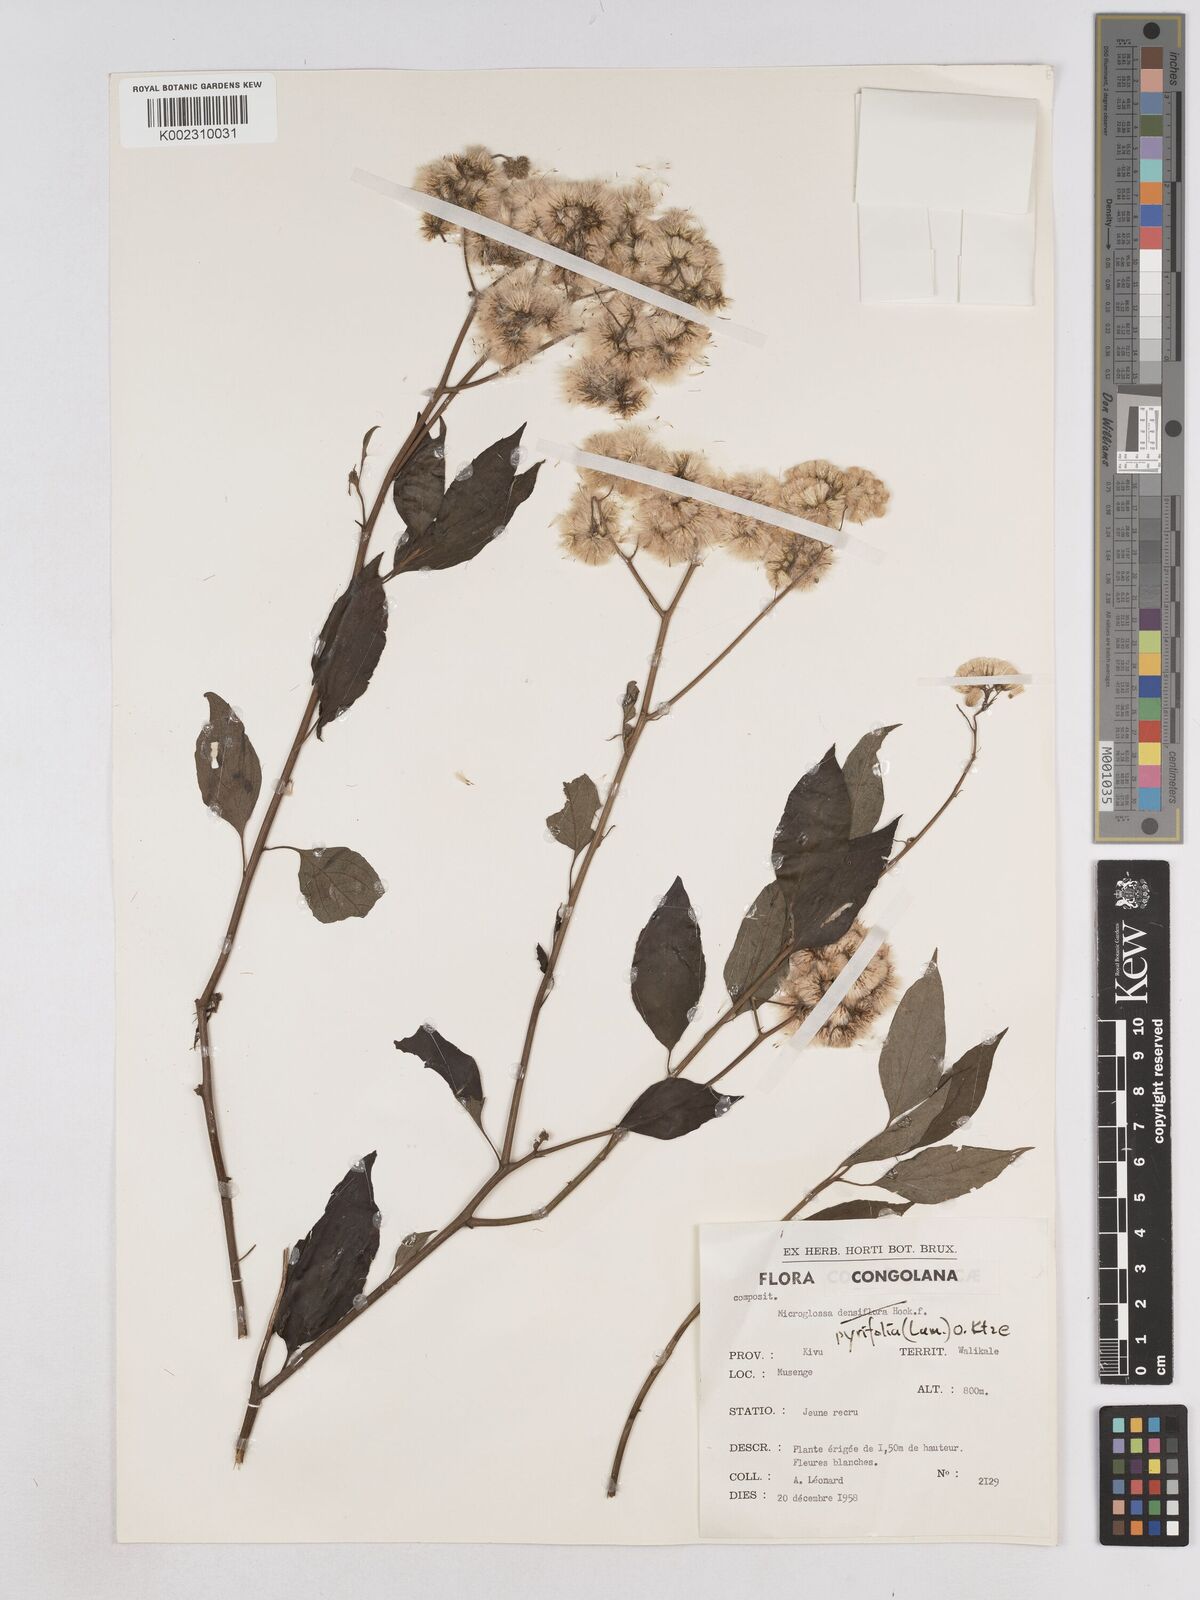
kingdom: Plantae
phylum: Tracheophyta
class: Magnoliopsida
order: Asterales
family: Asteraceae
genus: Microglossa
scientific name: Microglossa pyrifolia
